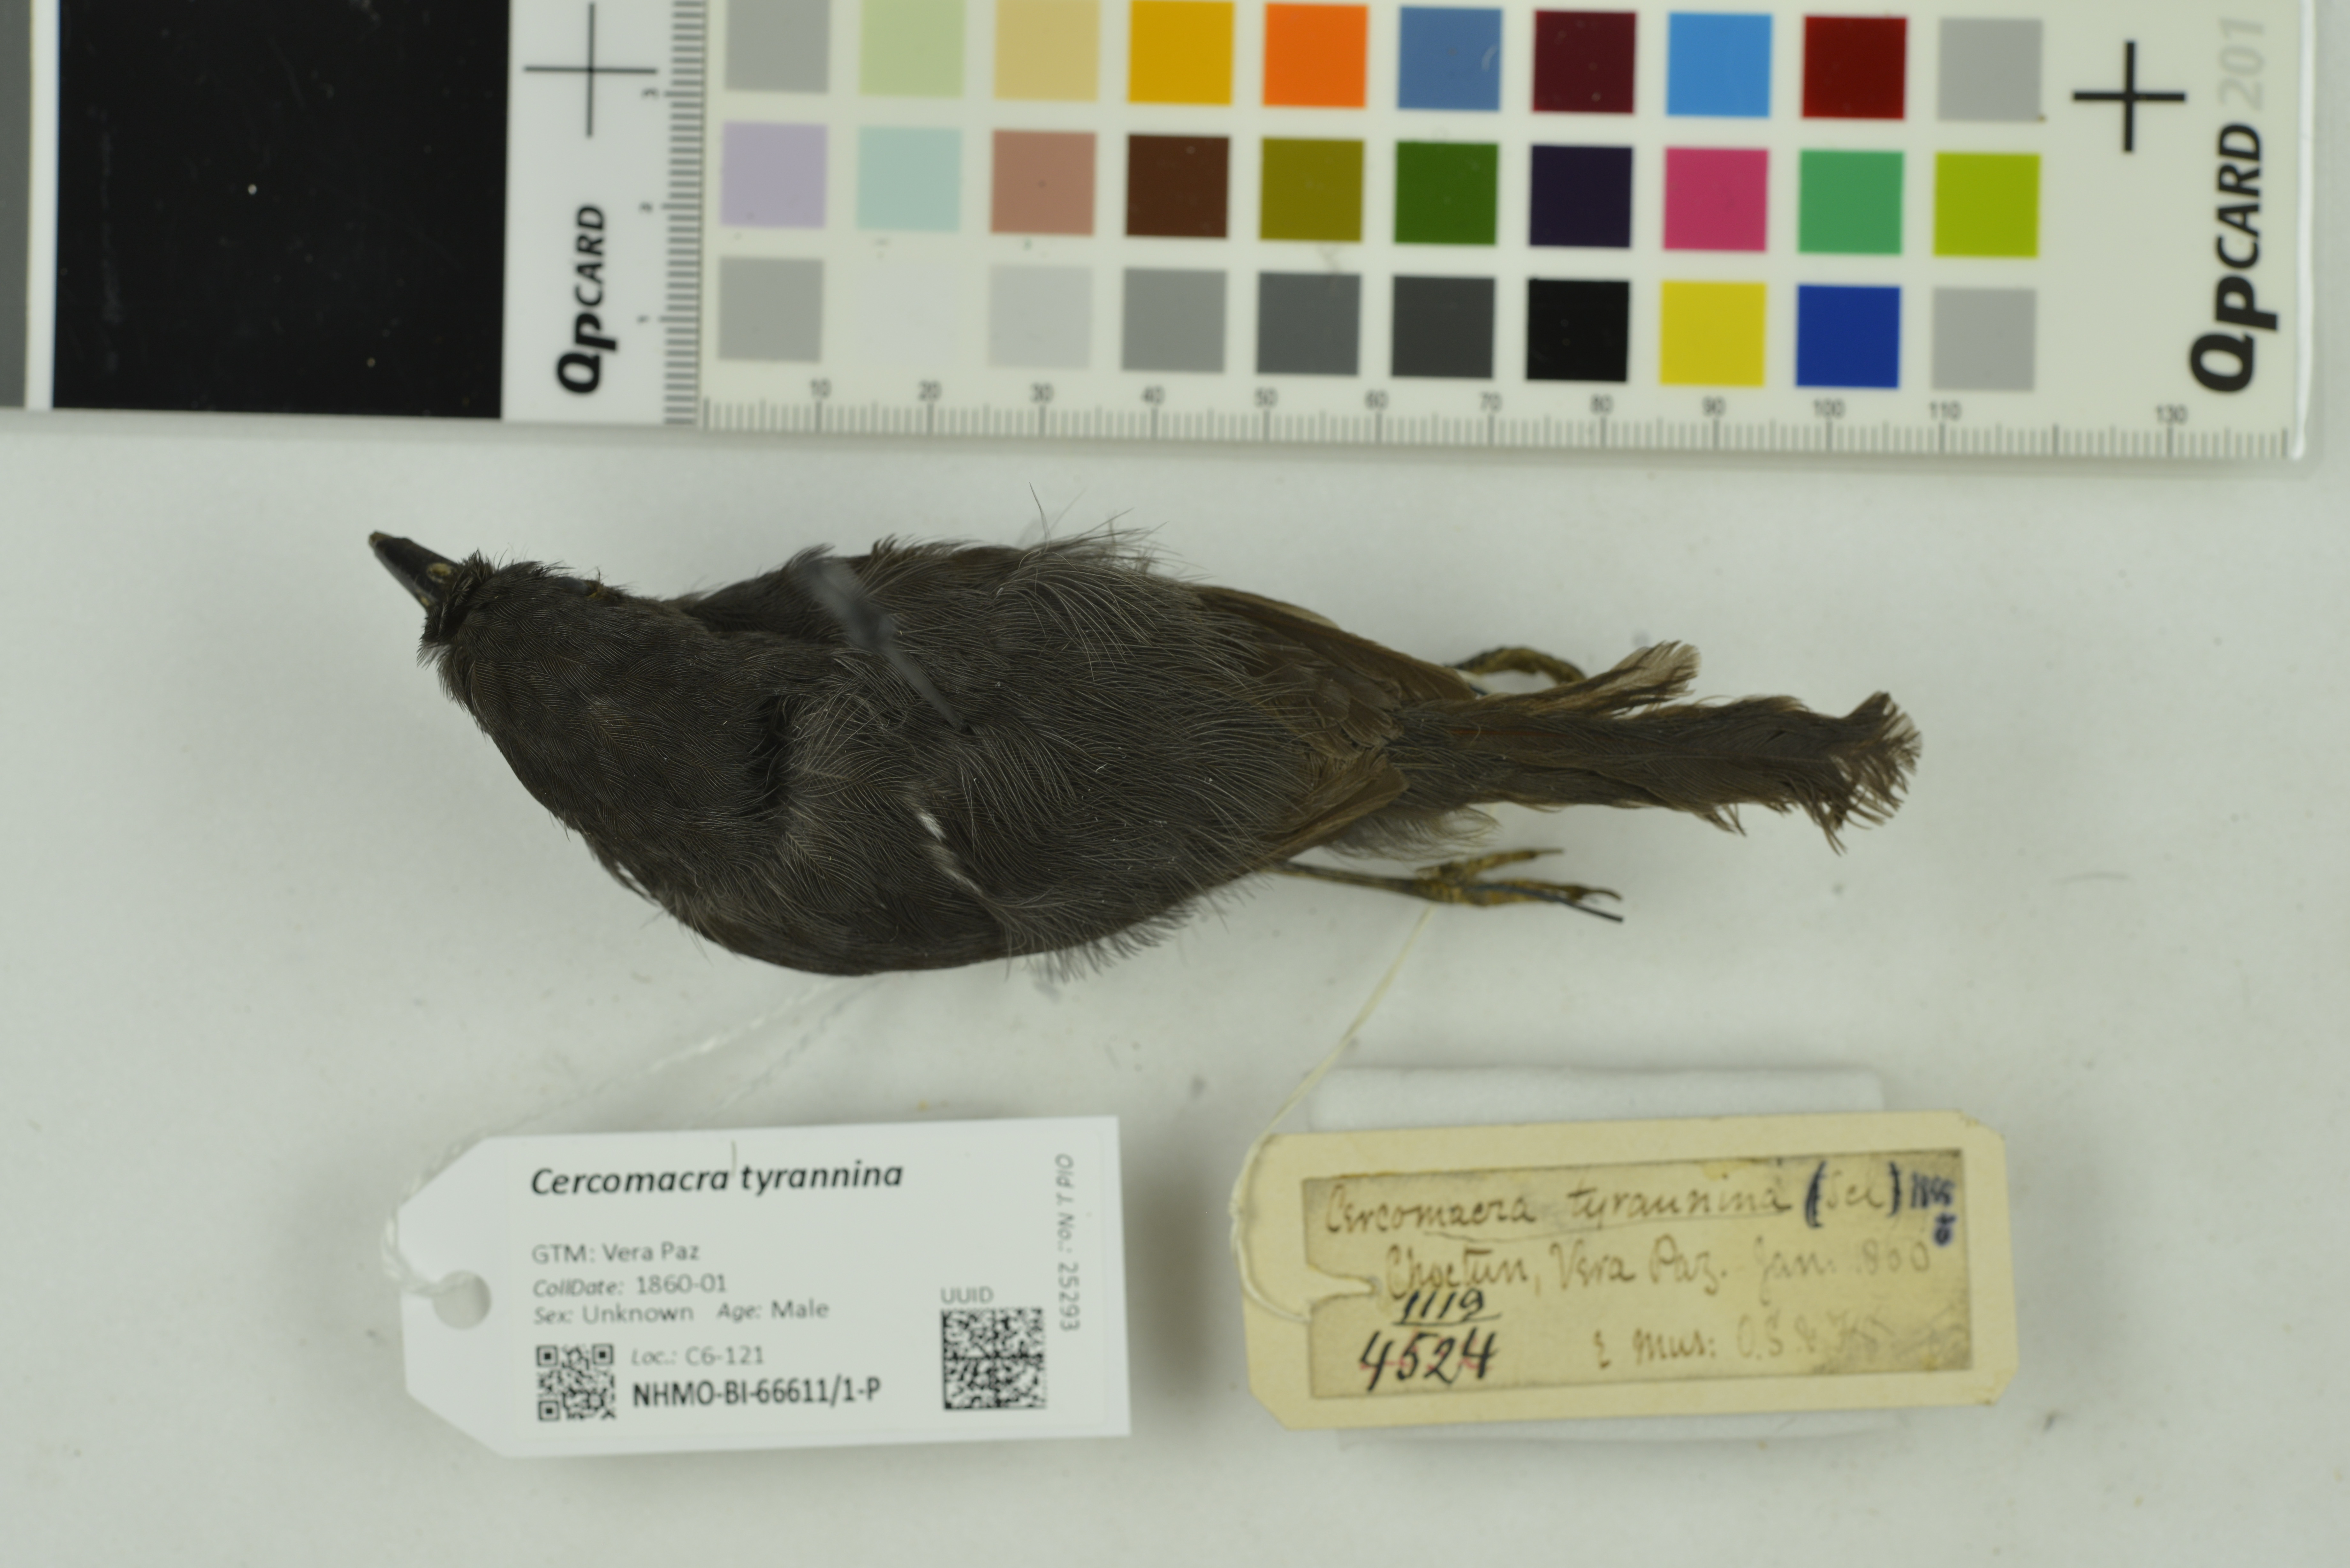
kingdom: Animalia
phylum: Chordata
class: Aves
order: Passeriformes
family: Thamnophilidae
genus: Cercomacra
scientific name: Cercomacra tyrannina
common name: Dusky antbird
